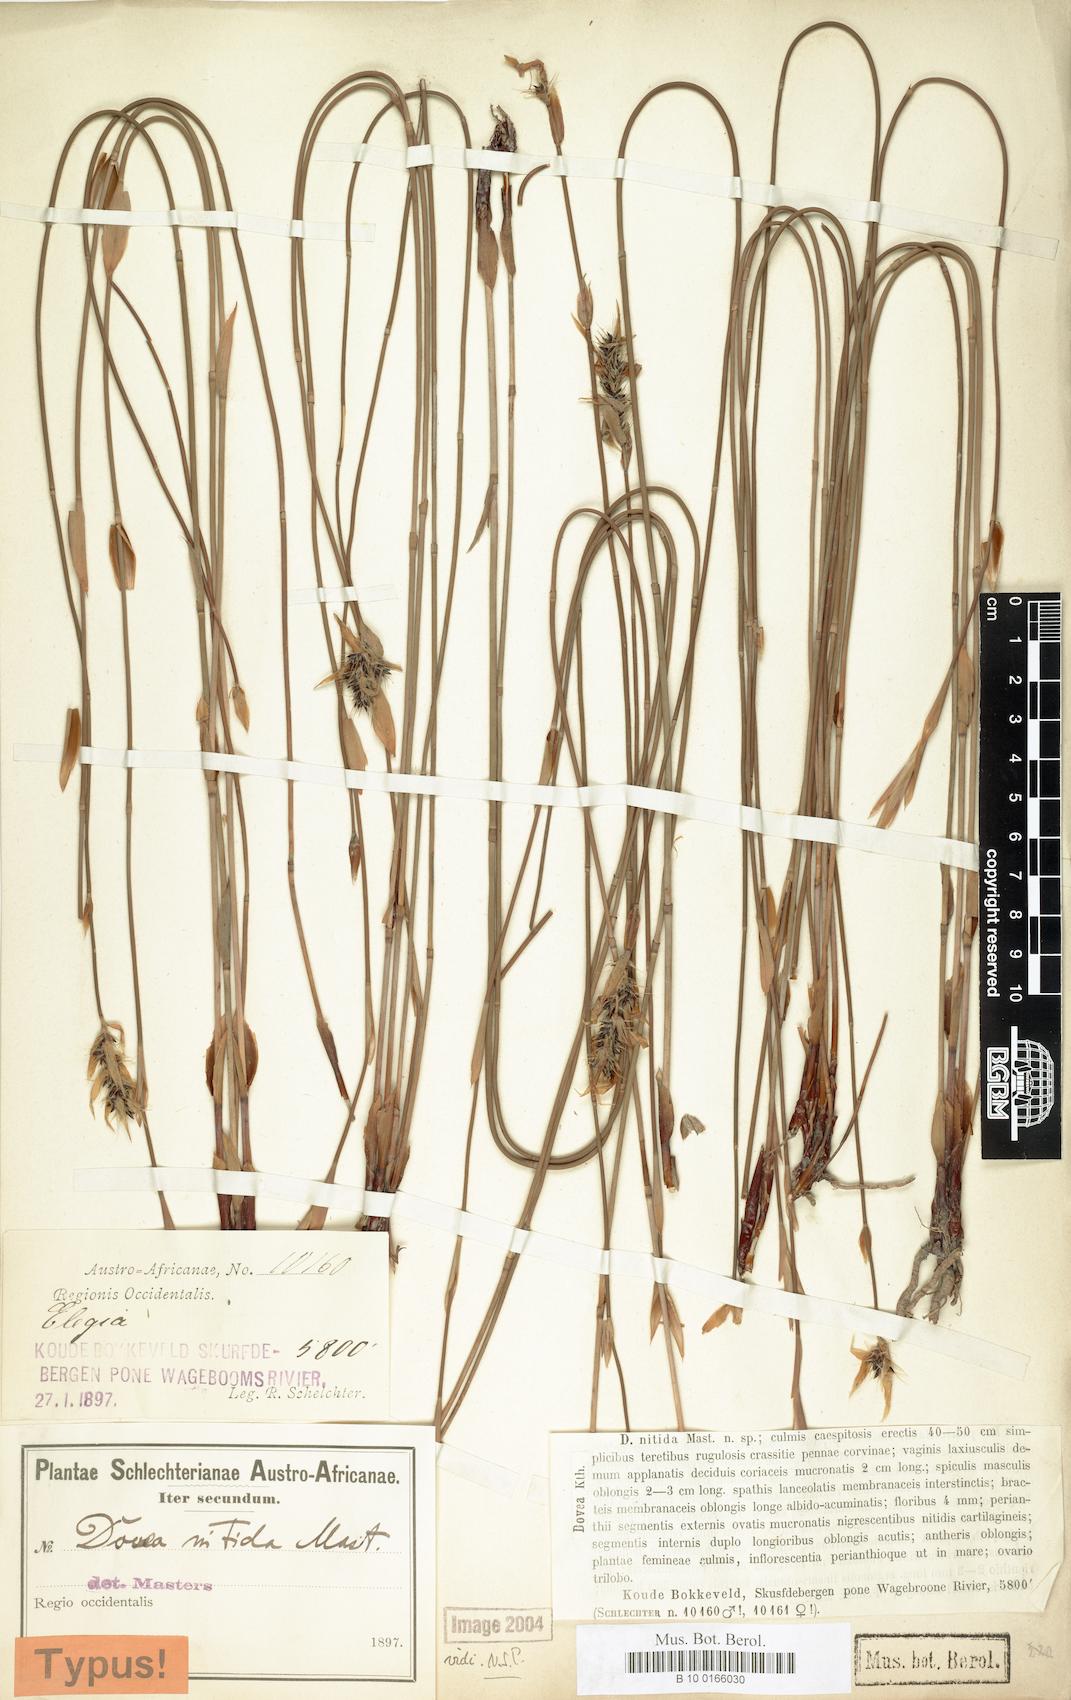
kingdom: Plantae
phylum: Tracheophyta
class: Liliopsida
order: Poales
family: Restionaceae
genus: Askidiosperma
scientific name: Askidiosperma nitidum
